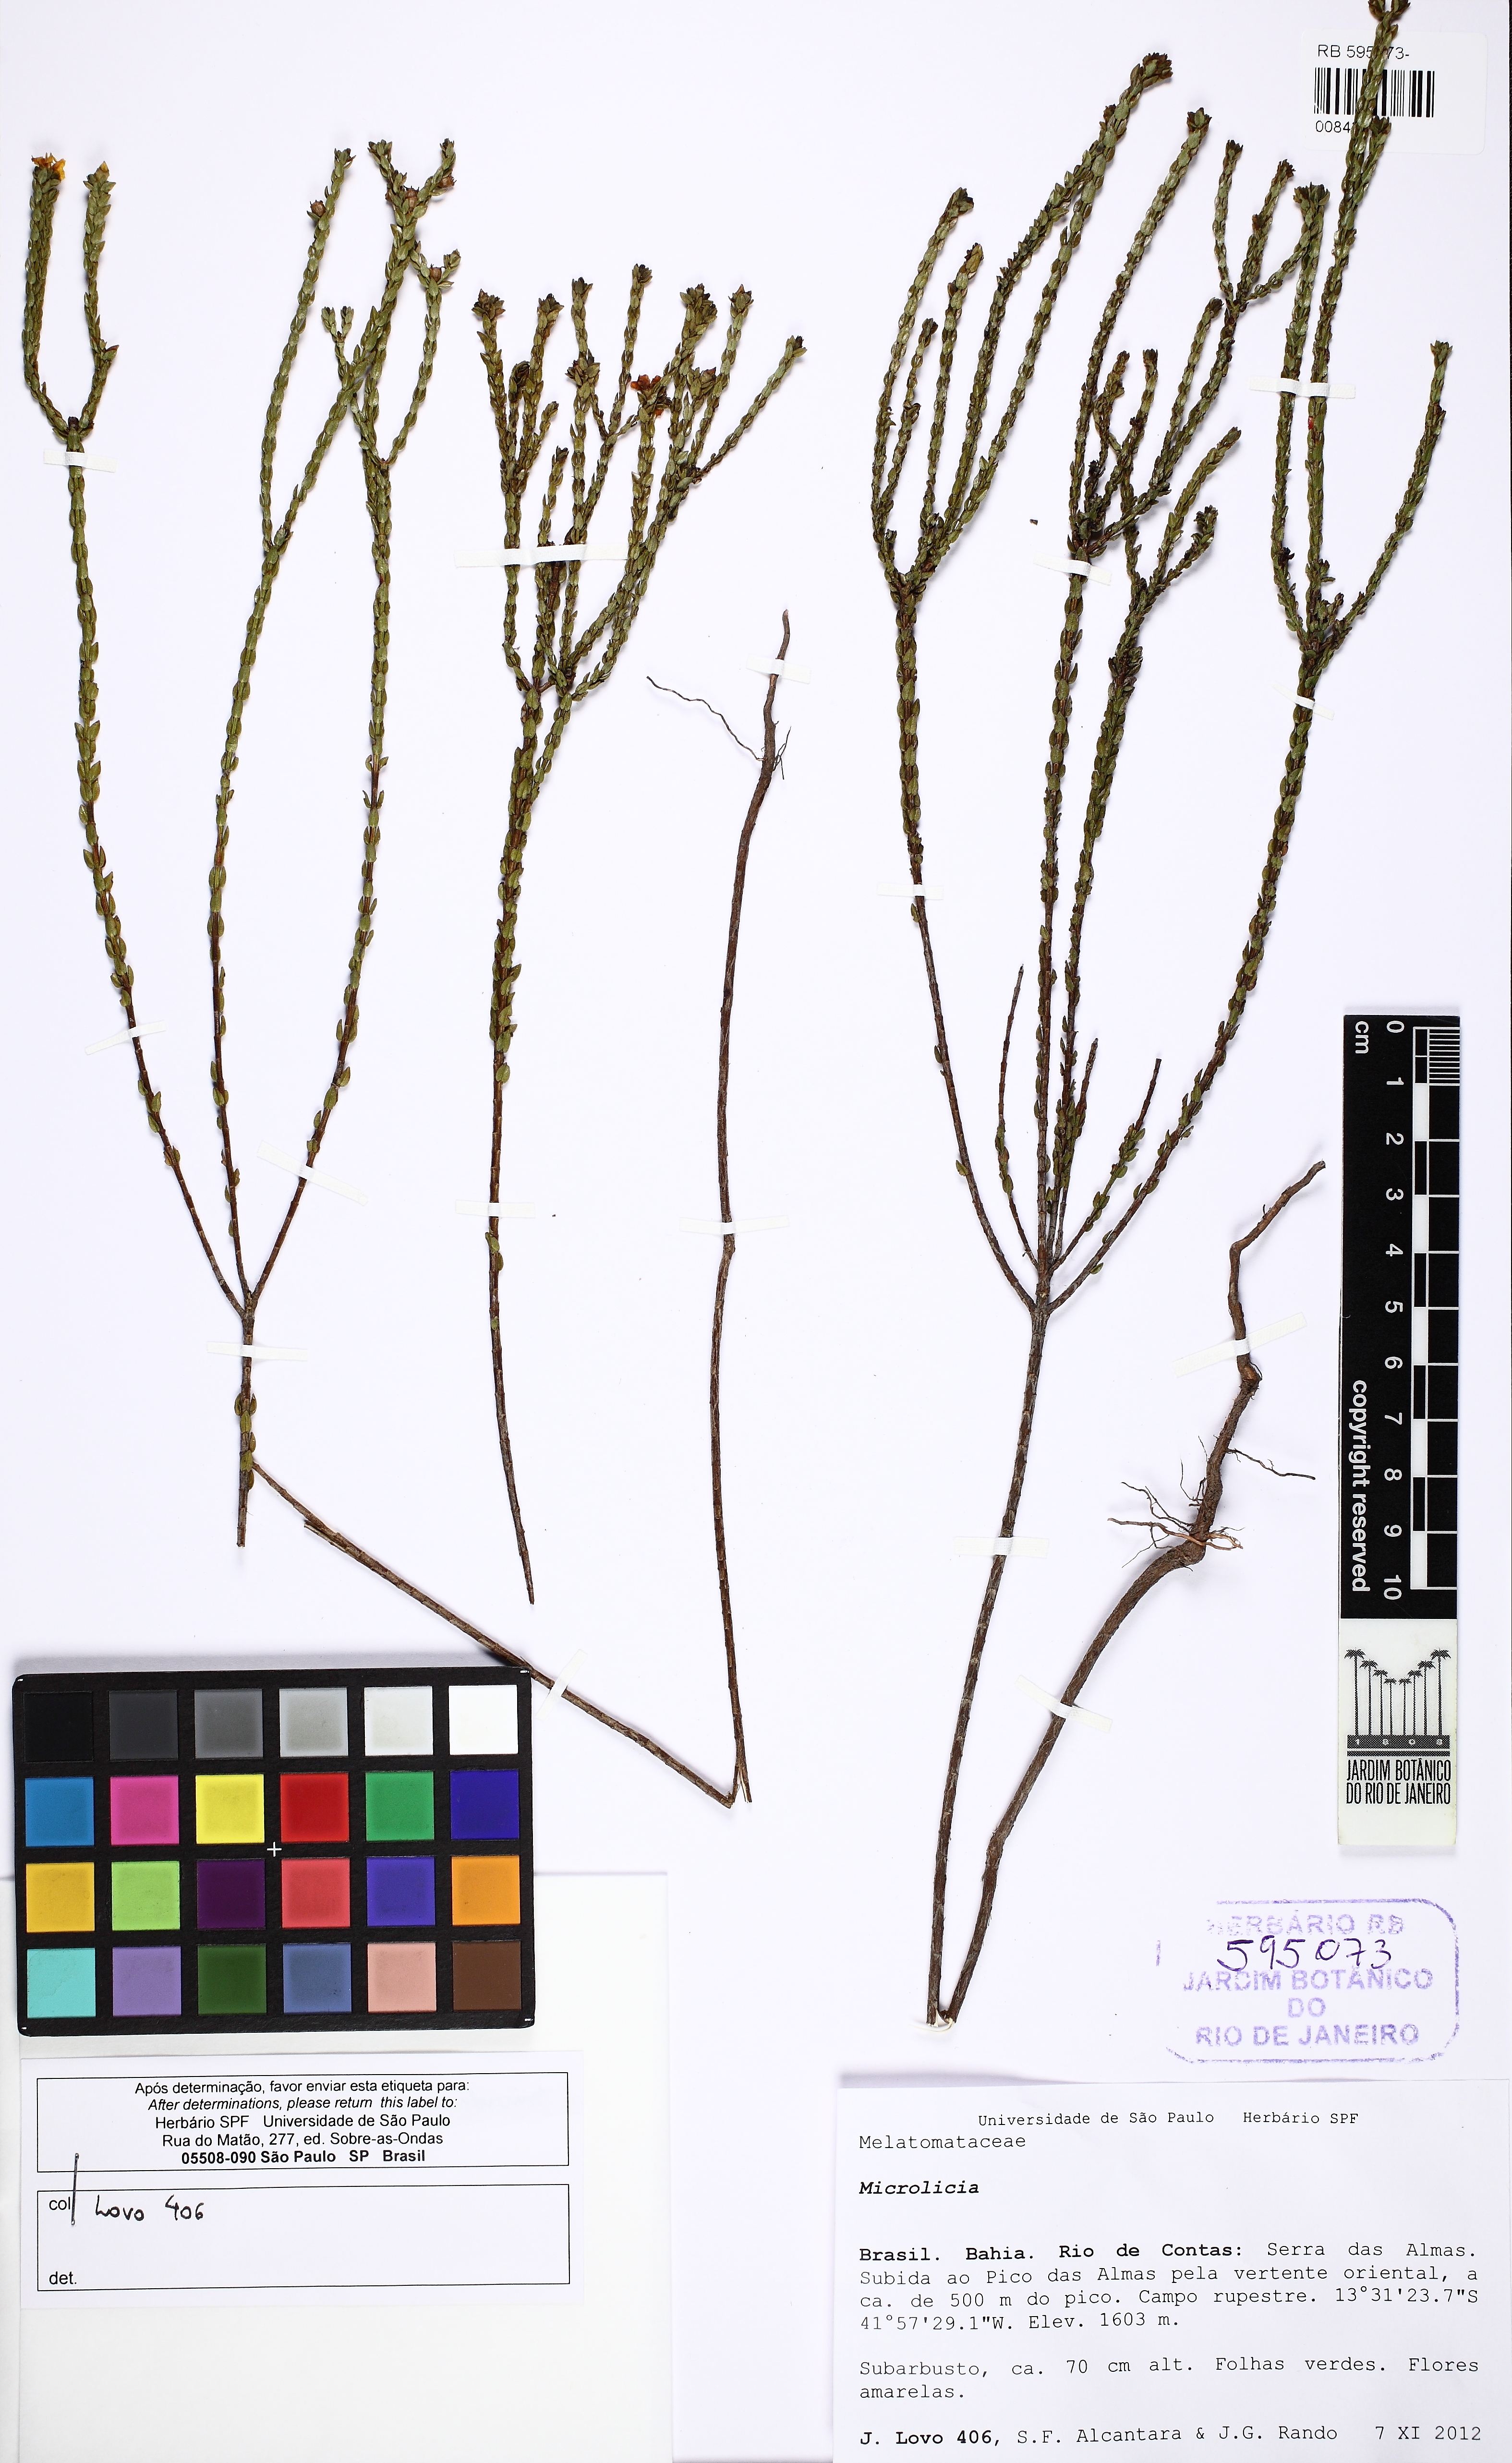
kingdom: Plantae
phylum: Tracheophyta
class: Magnoliopsida
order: Myrtales
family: Melastomataceae
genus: Microlicia
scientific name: Microlicia lutea
